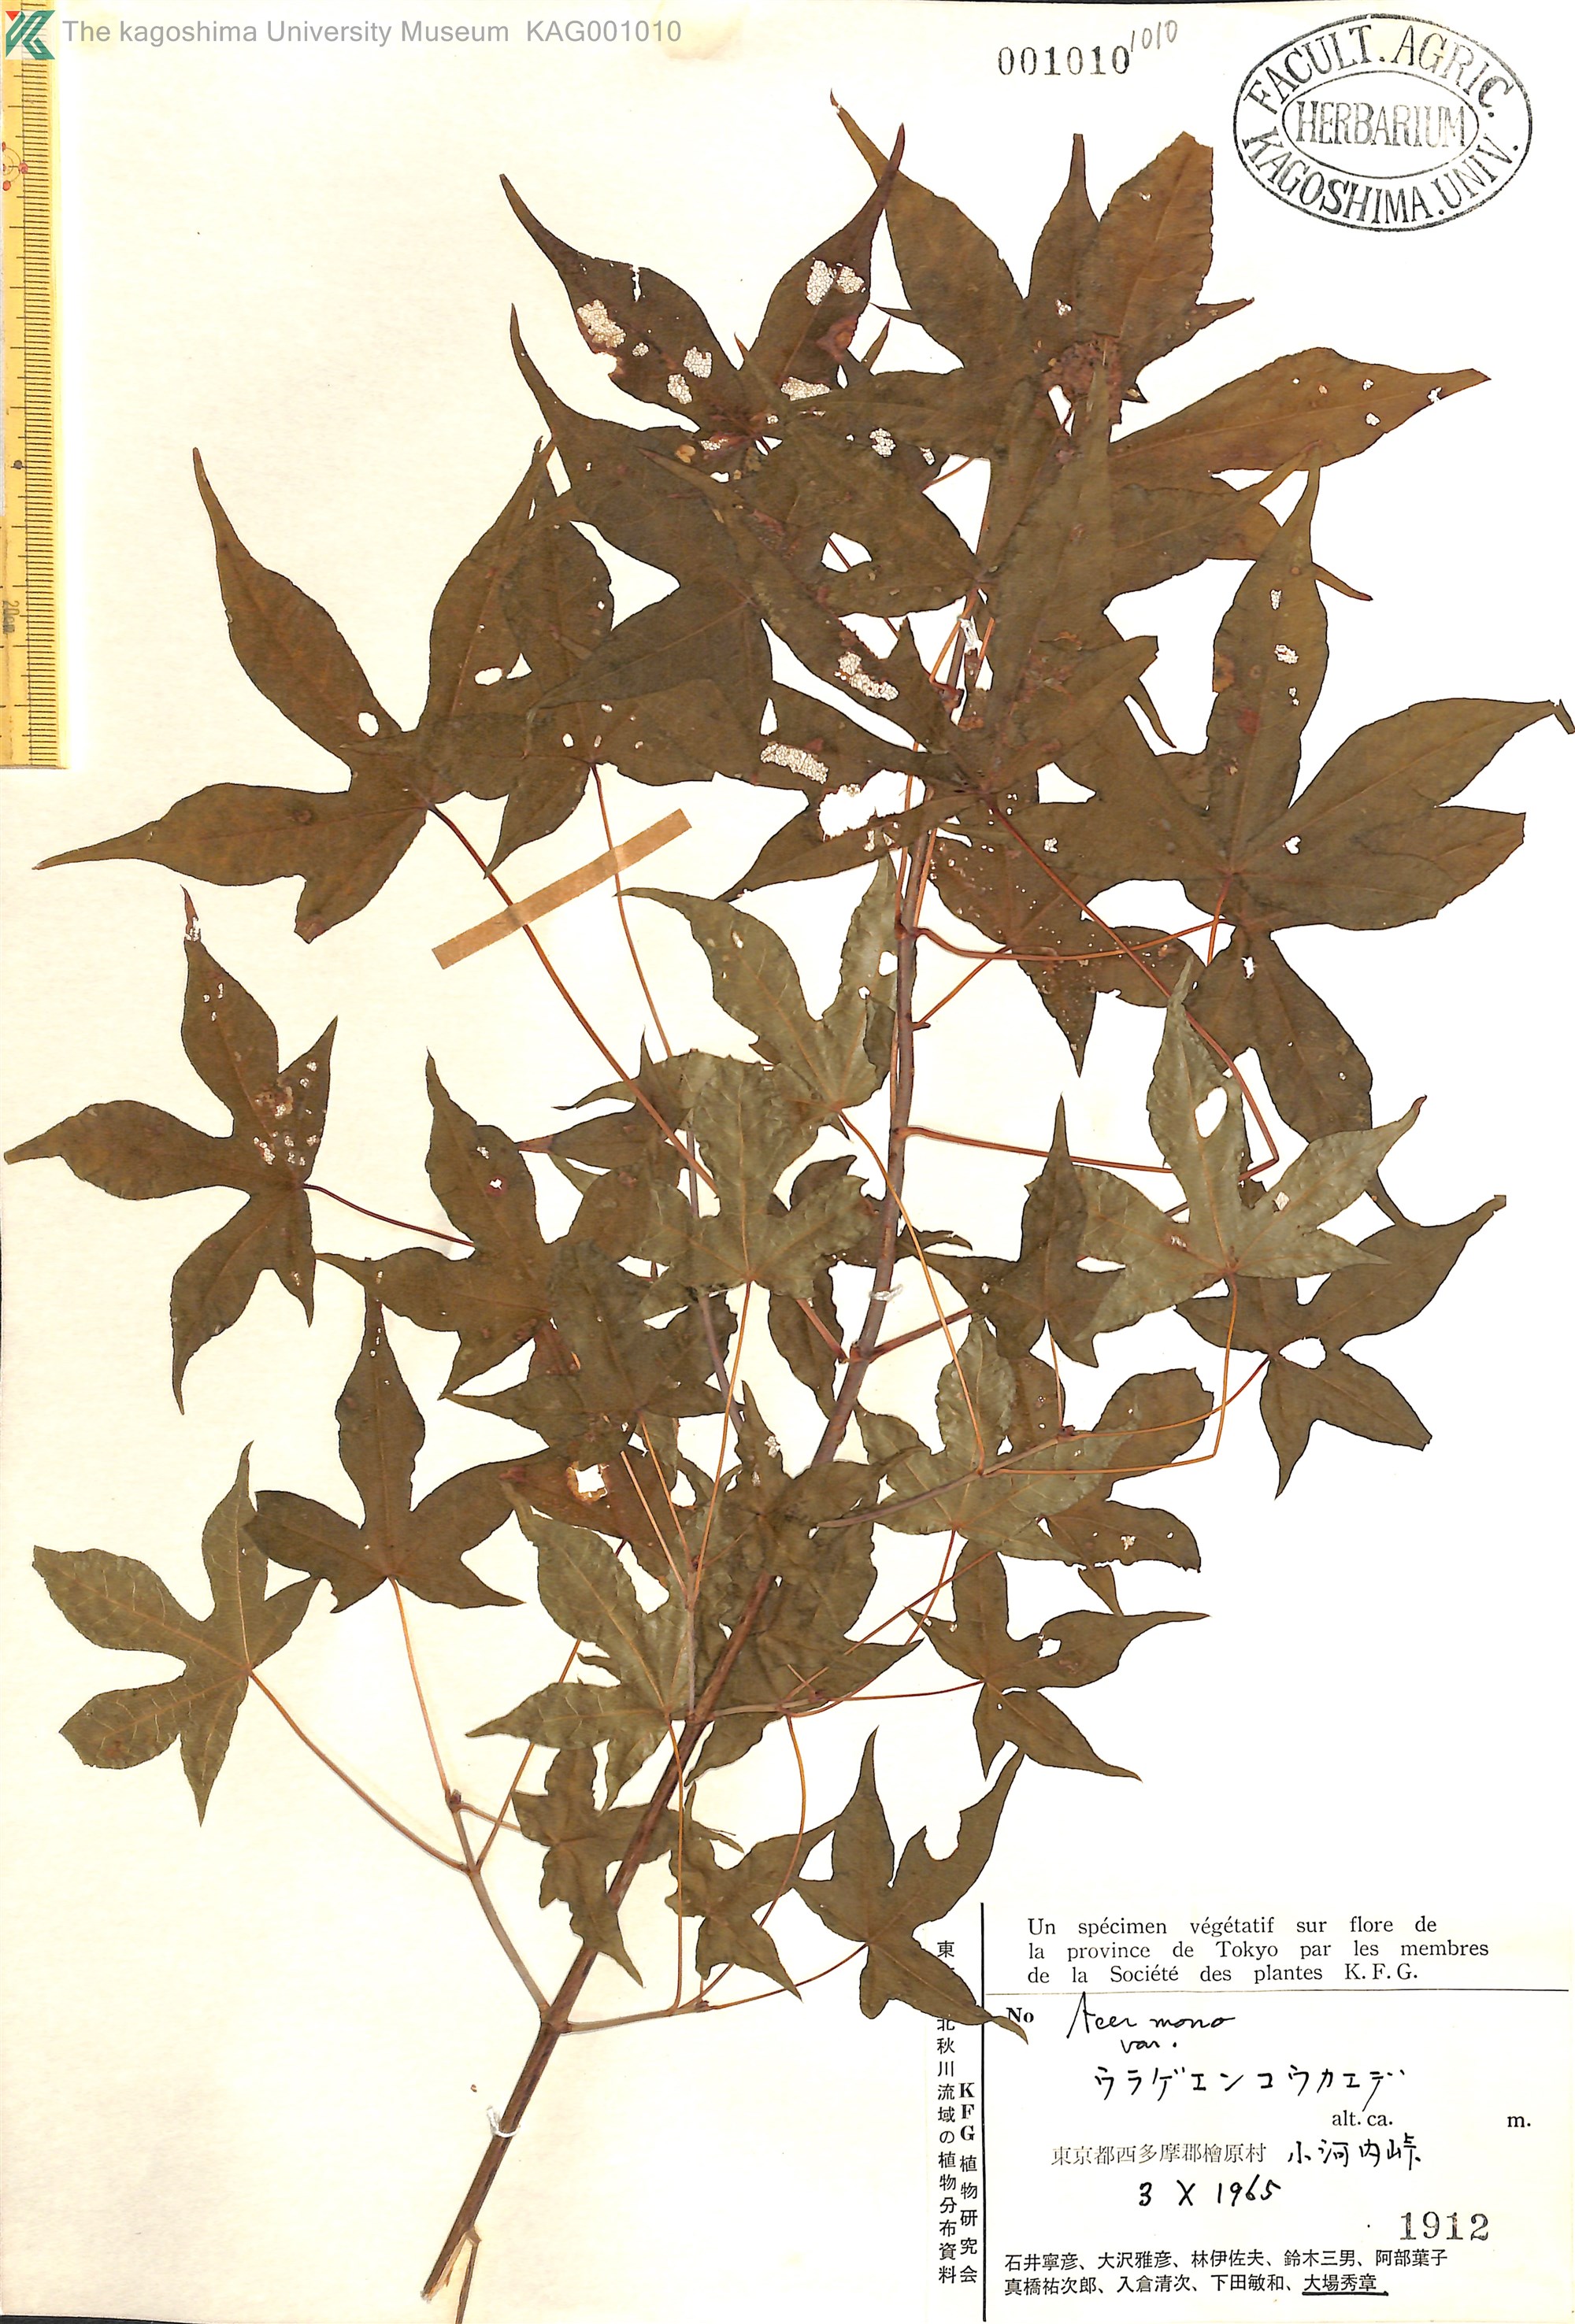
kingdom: Plantae
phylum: Tracheophyta
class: Magnoliopsida
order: Sapindales
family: Sapindaceae
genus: Acer
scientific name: Acer pictum
